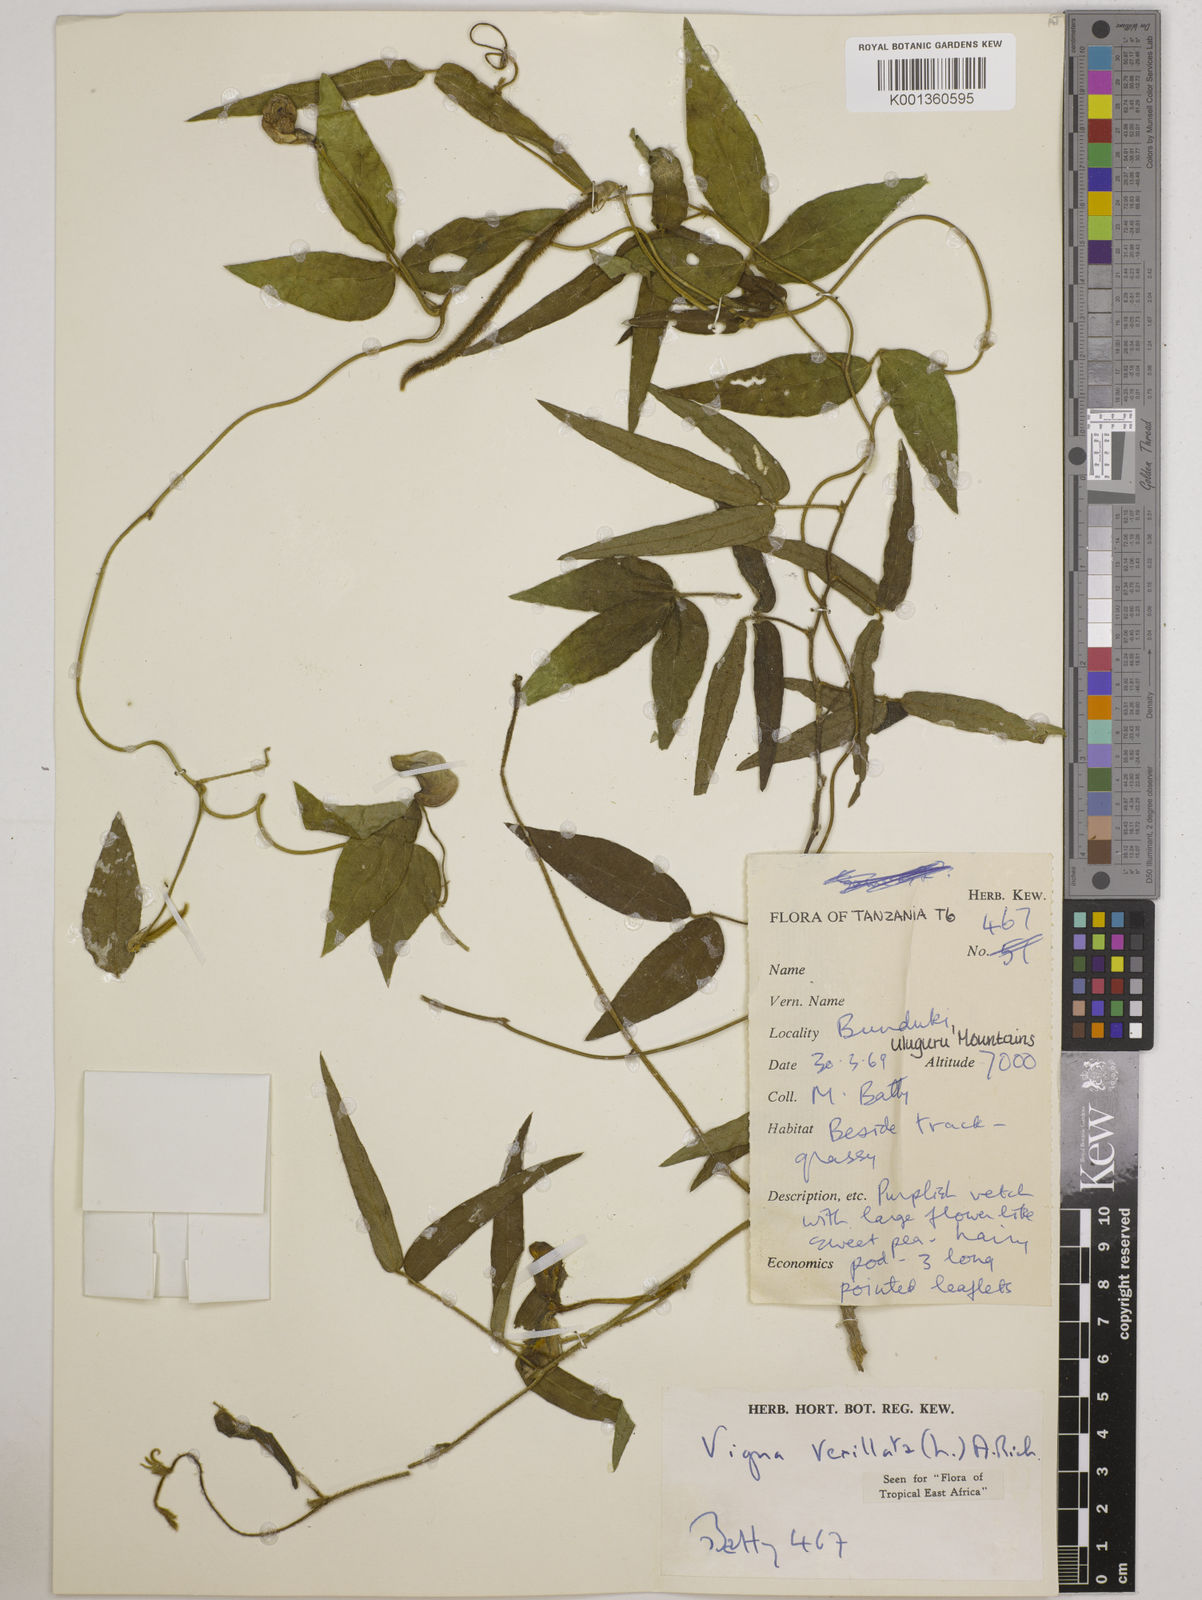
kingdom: Plantae
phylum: Tracheophyta
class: Magnoliopsida
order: Fabales
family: Fabaceae
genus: Vigna
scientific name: Vigna vexillata
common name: Zombi pea
